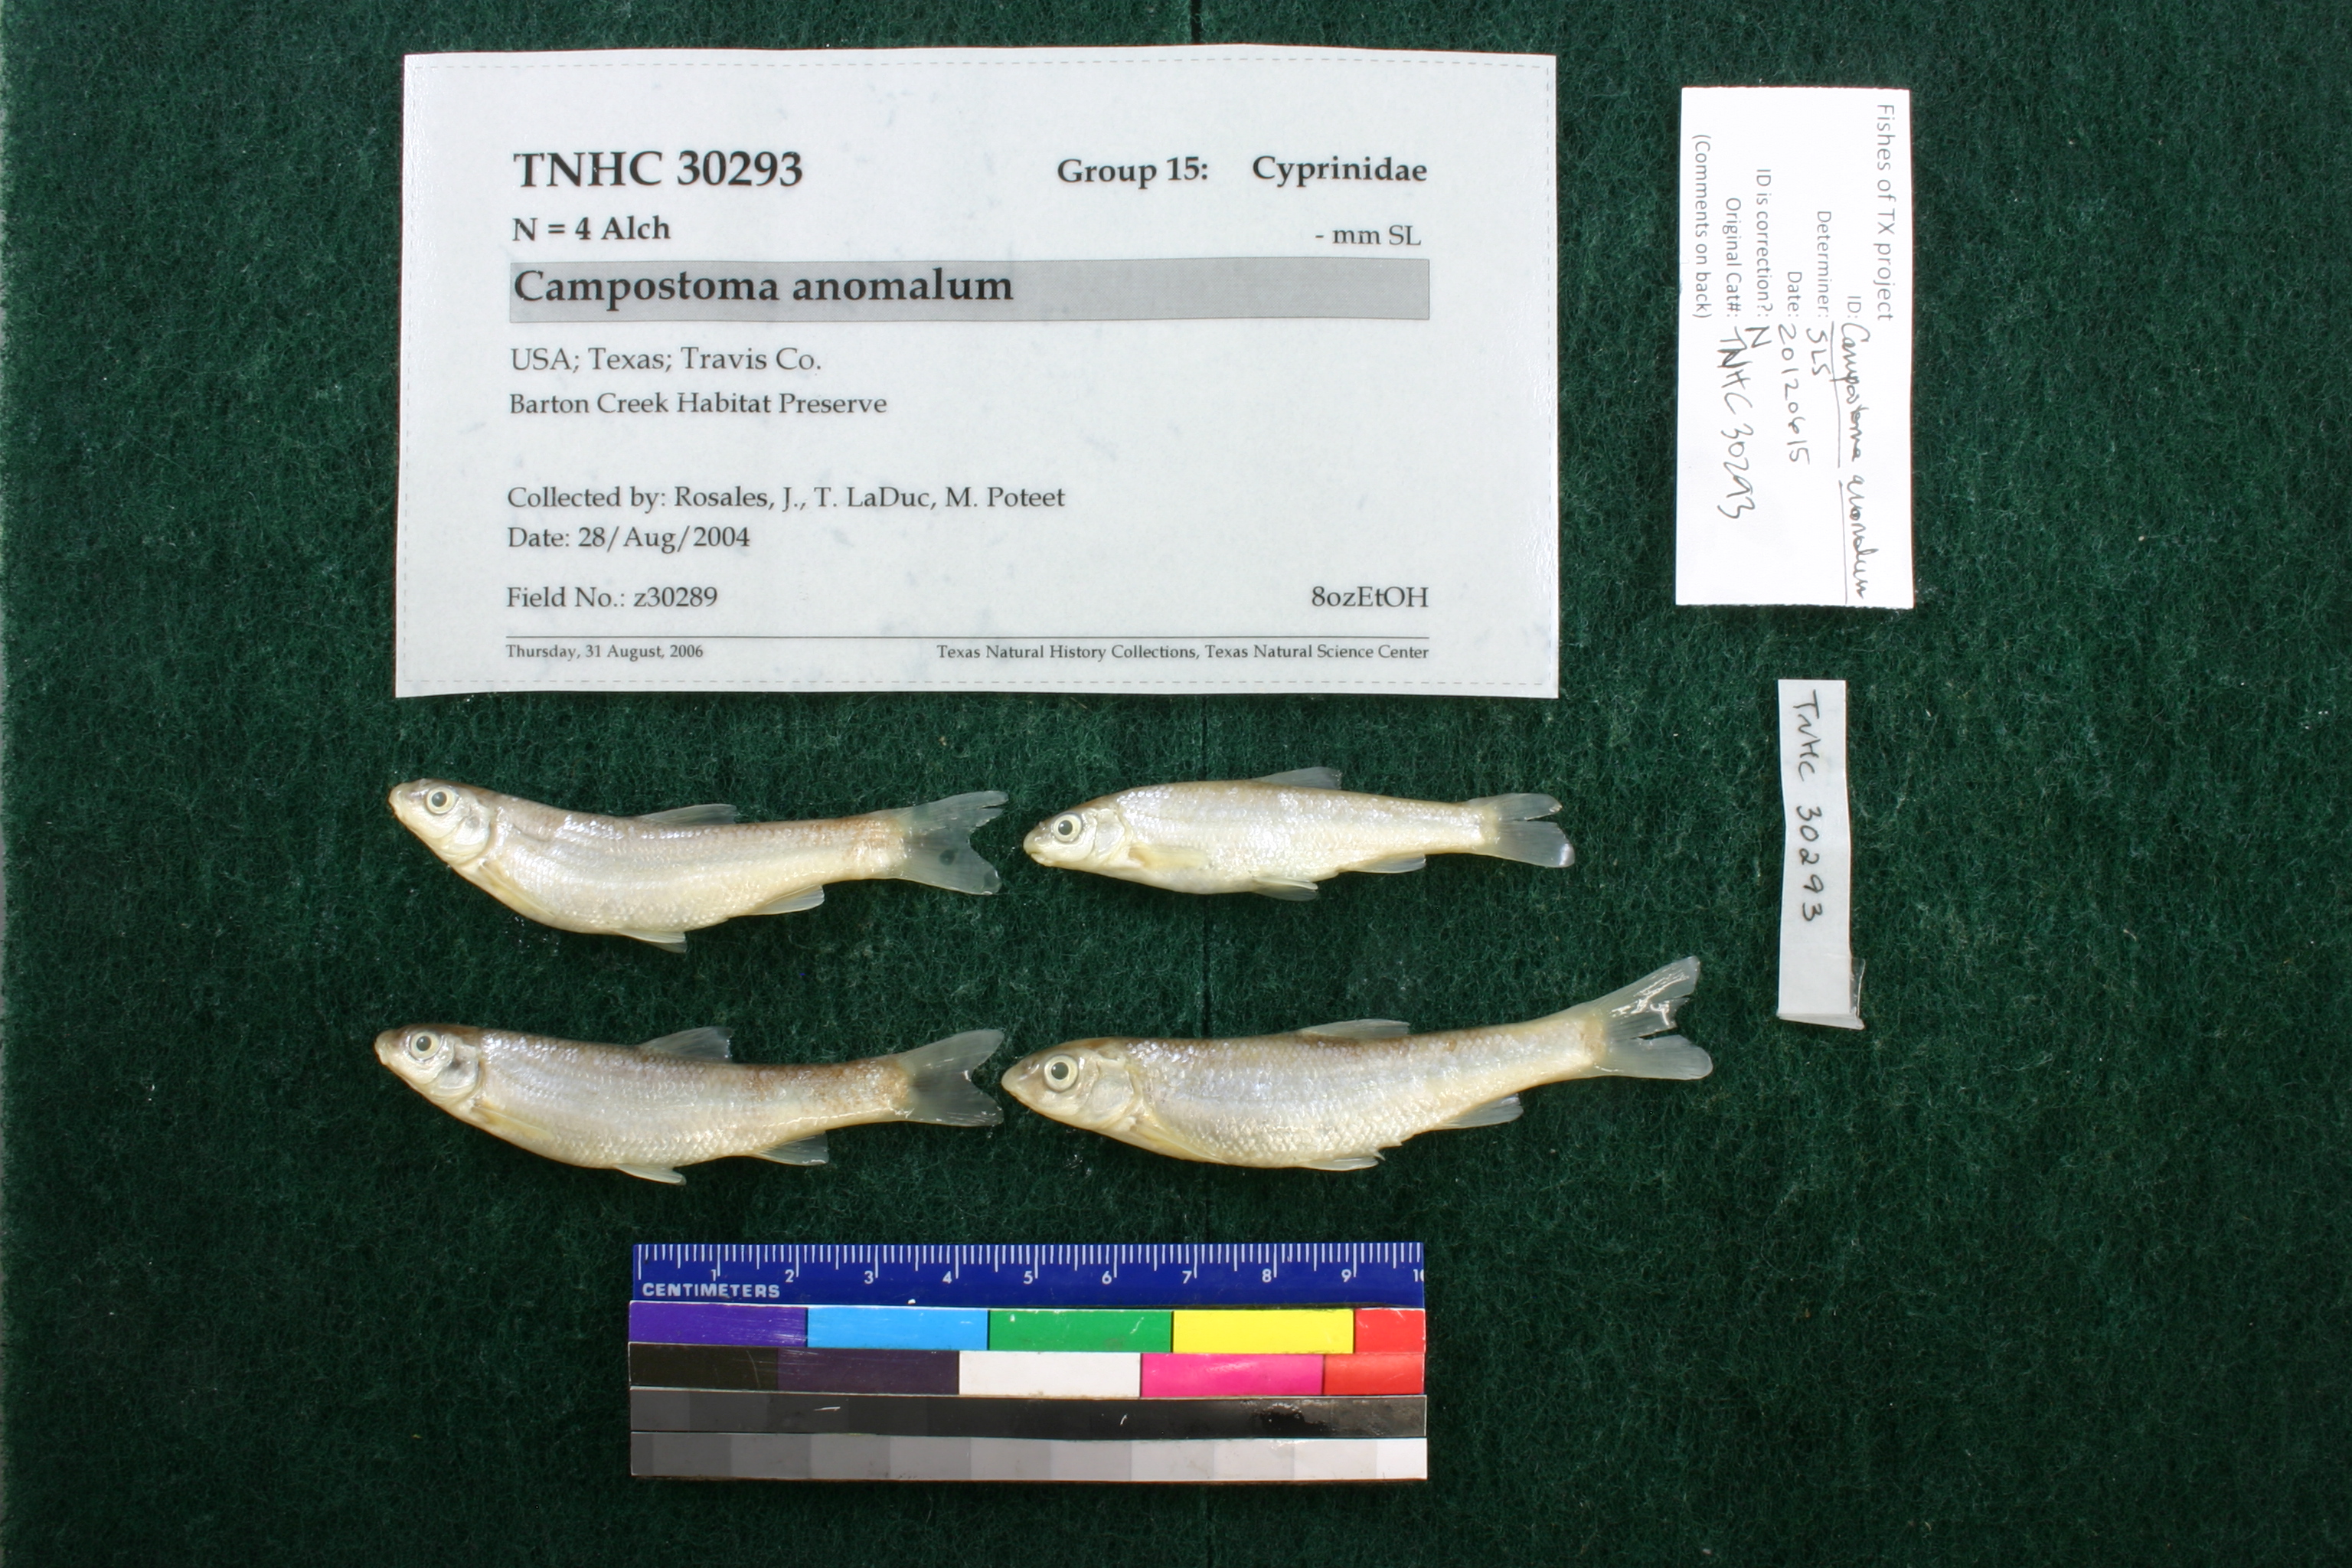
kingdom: Animalia
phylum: Chordata
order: Cypriniformes
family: Cyprinidae
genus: Campostoma
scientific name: Campostoma anomalum
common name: Central stoneroller
